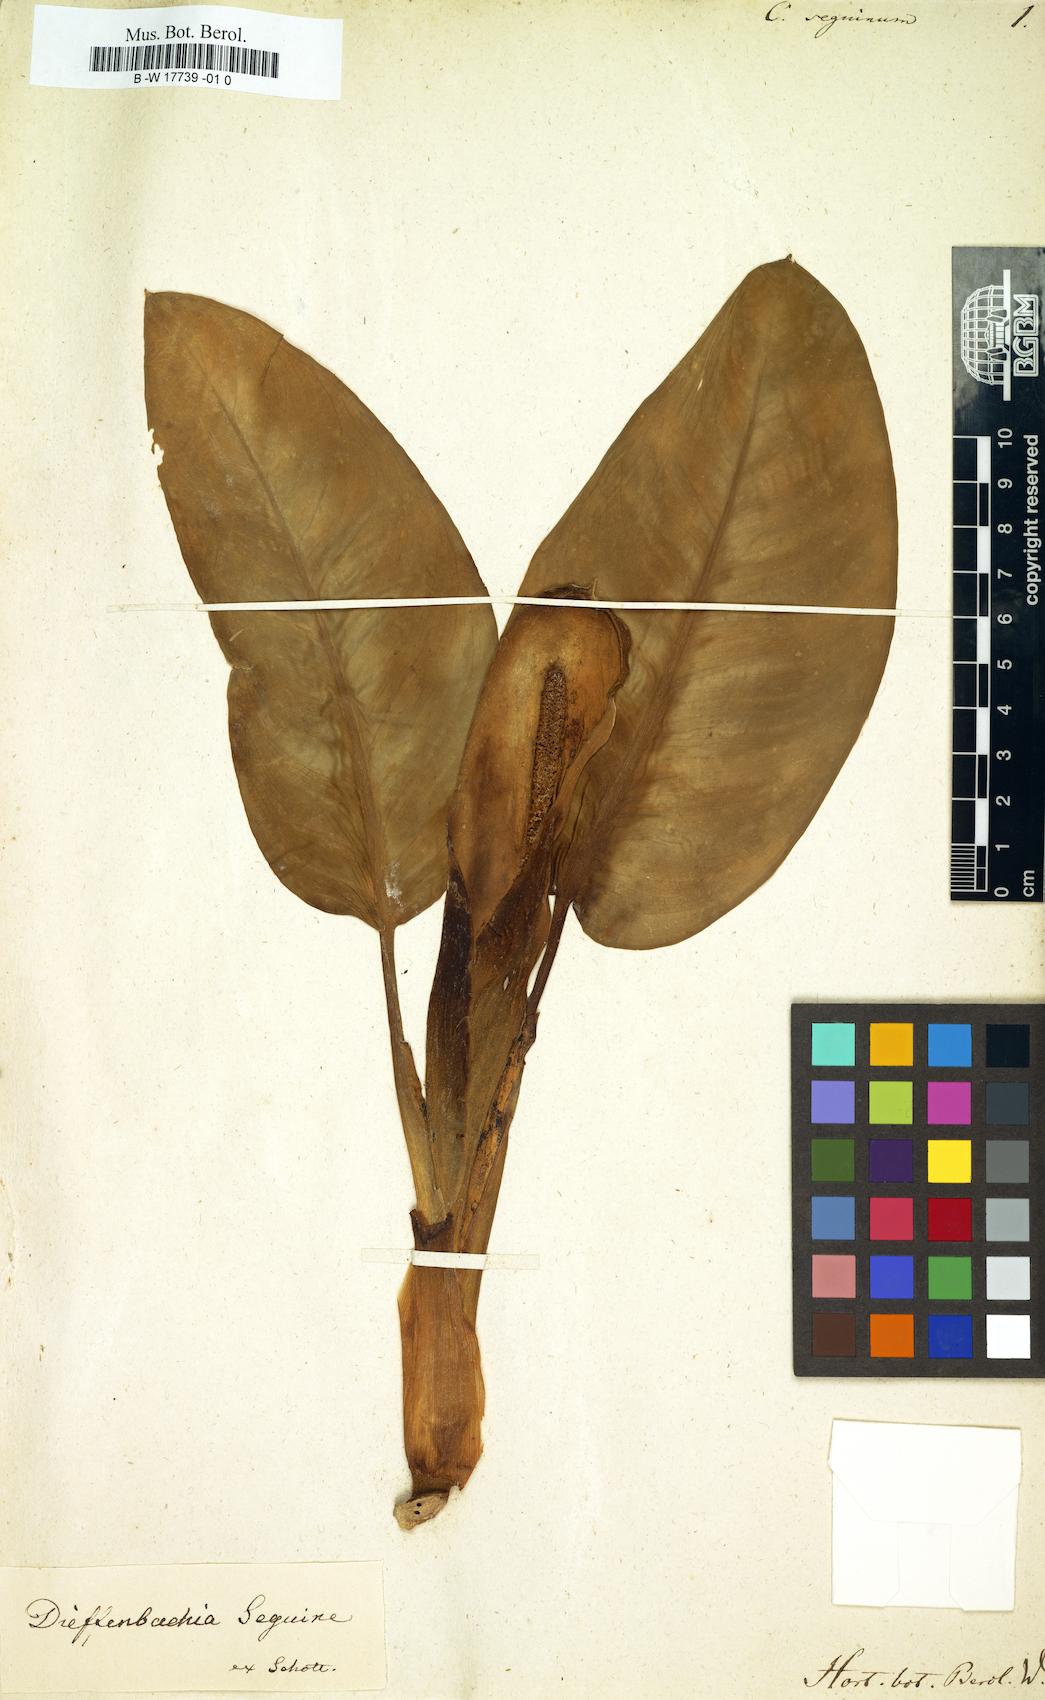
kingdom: Plantae
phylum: Tracheophyta
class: Liliopsida
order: Alismatales
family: Araceae
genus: Dieffenbachia
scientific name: Dieffenbachia seguine
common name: Dumbcane
